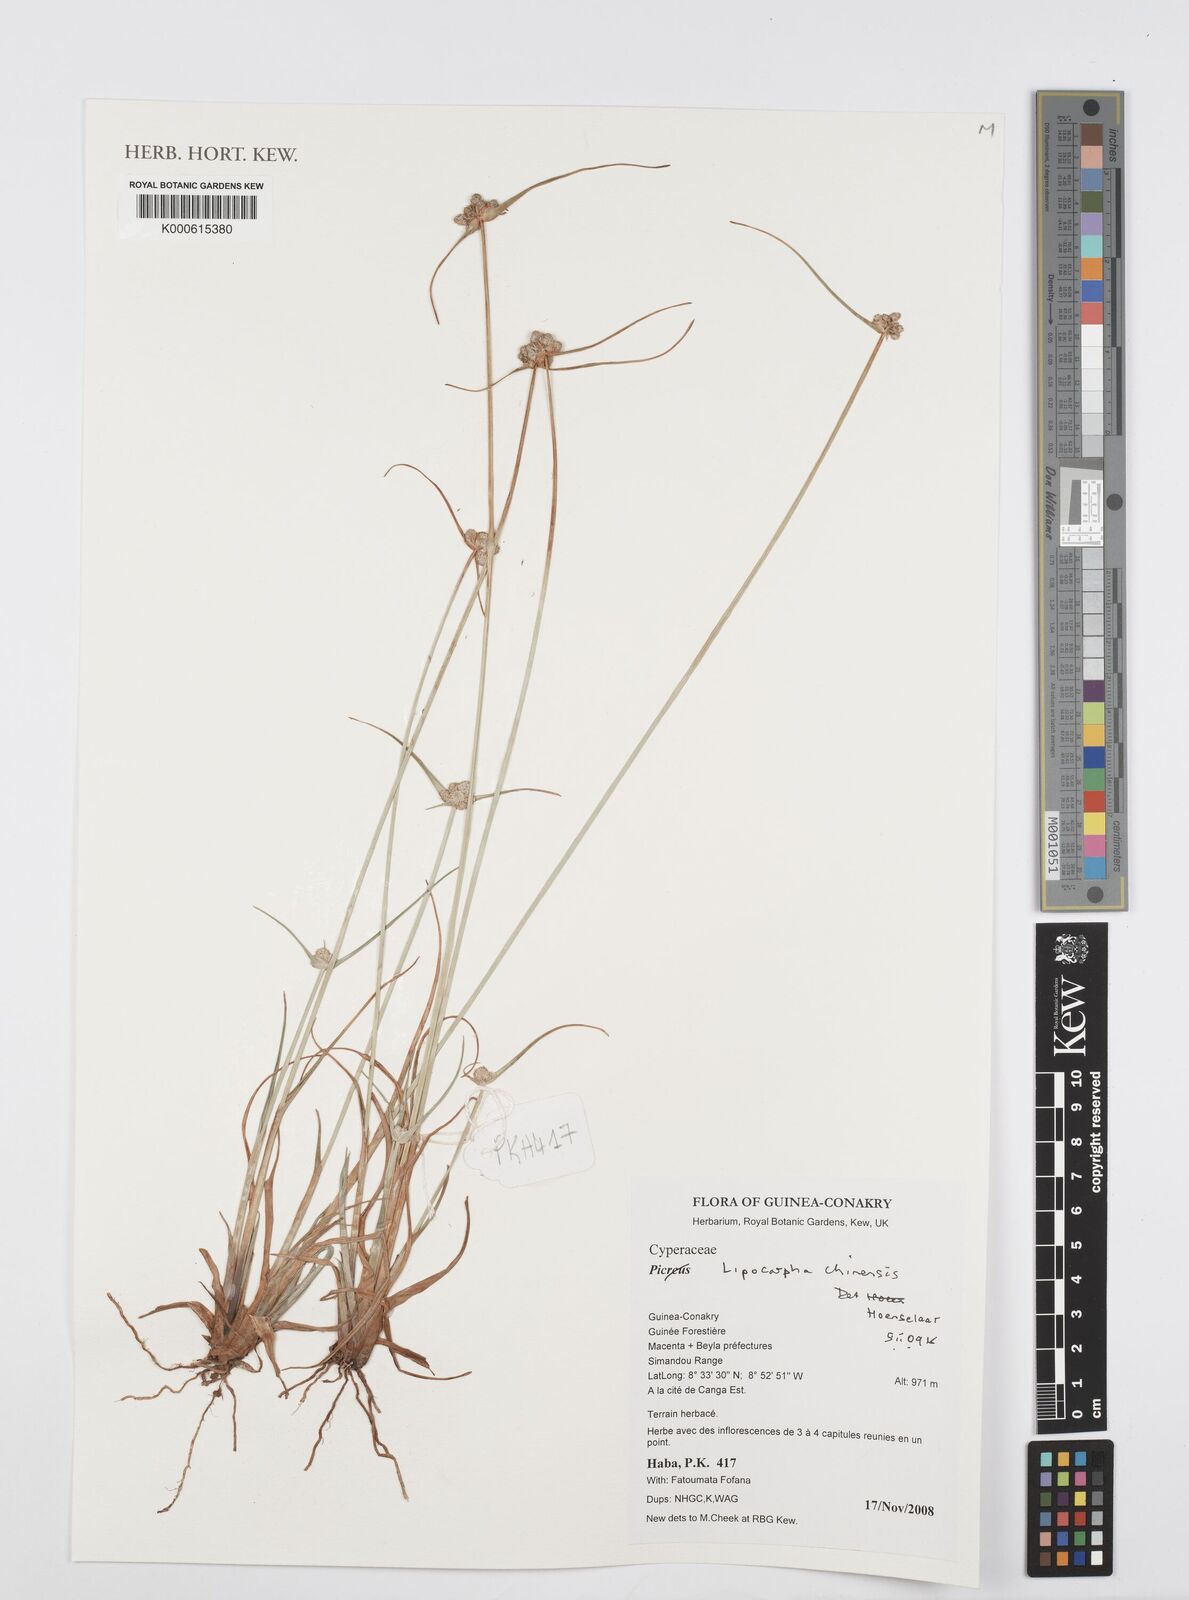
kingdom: Plantae
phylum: Tracheophyta
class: Liliopsida
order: Poales
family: Cyperaceae
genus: Cyperus
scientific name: Cyperus albescens
